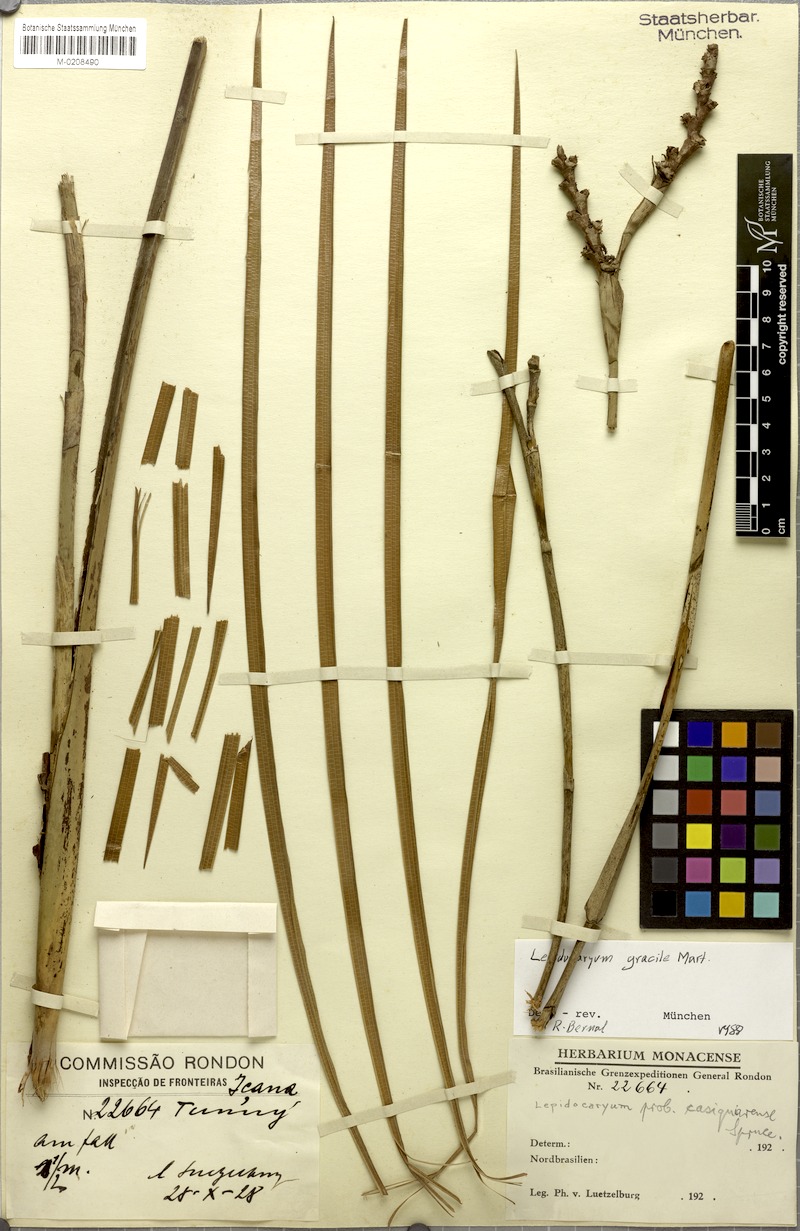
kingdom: Plantae
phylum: Tracheophyta
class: Liliopsida
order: Arecales
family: Arecaceae
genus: Lepidocaryum
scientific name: Lepidocaryum tenue
